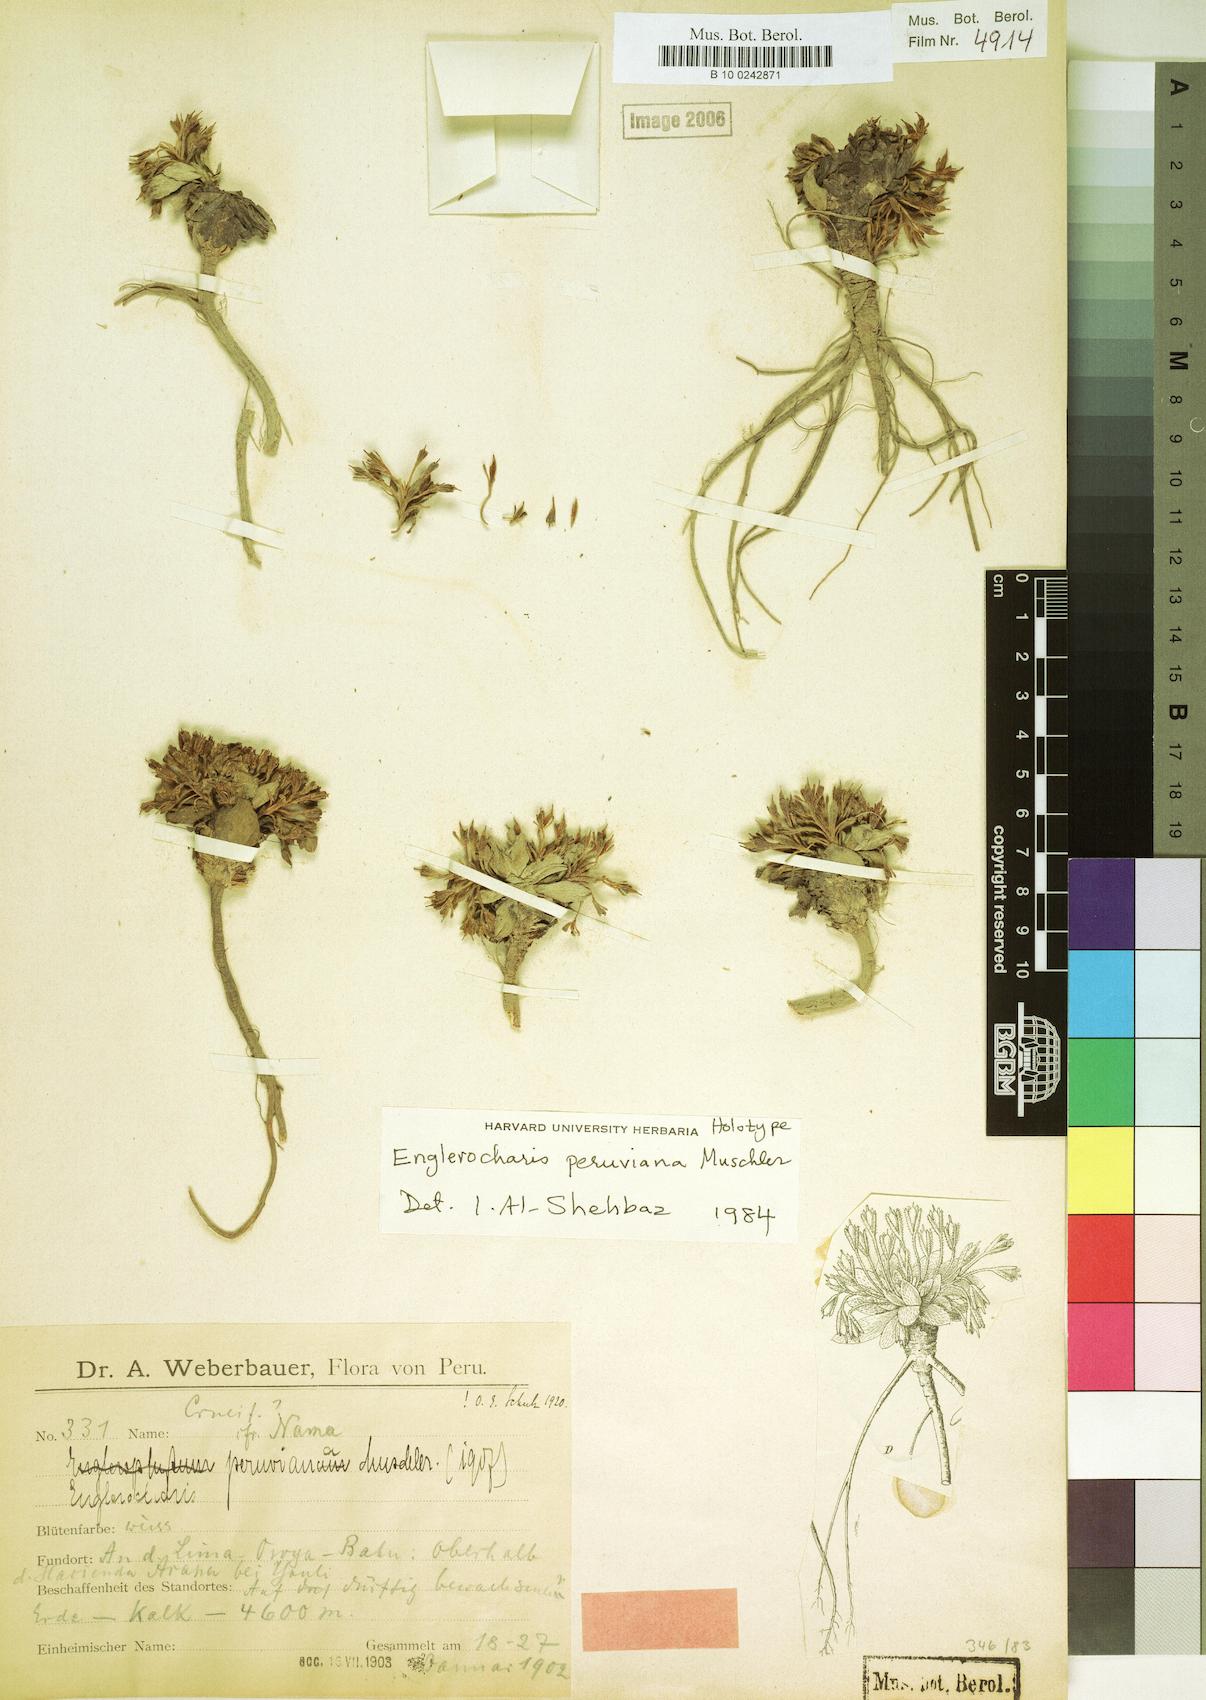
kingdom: Plantae
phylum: Tracheophyta
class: Magnoliopsida
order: Brassicales
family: Brassicaceae
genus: Englerocharis
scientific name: Englerocharis peruviana
